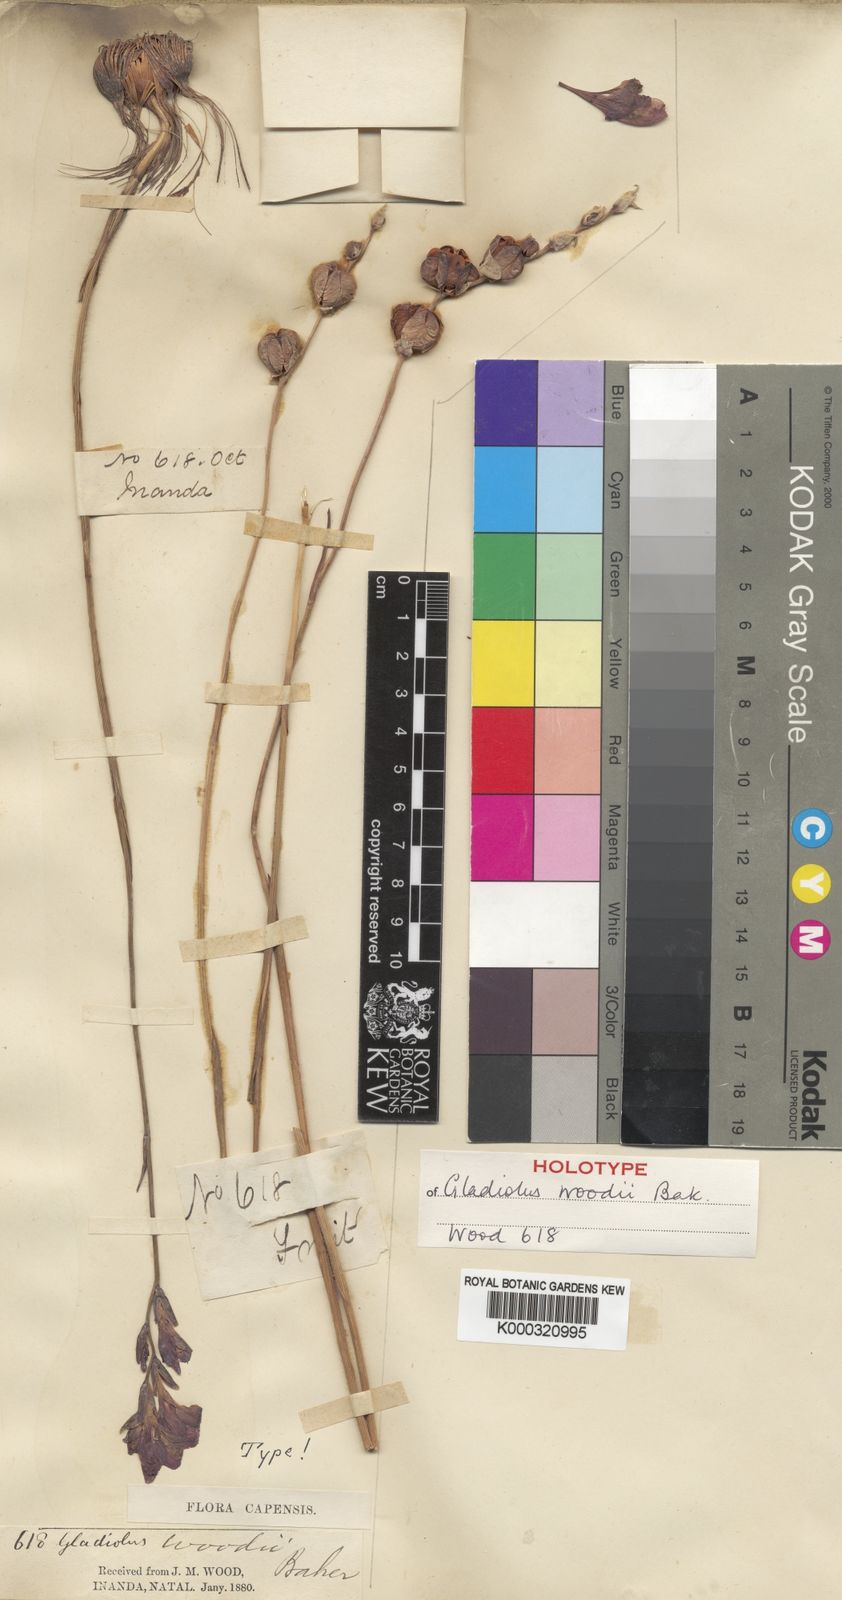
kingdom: Plantae
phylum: Tracheophyta
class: Liliopsida
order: Asparagales
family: Iridaceae
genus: Gladiolus
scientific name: Gladiolus woodii
